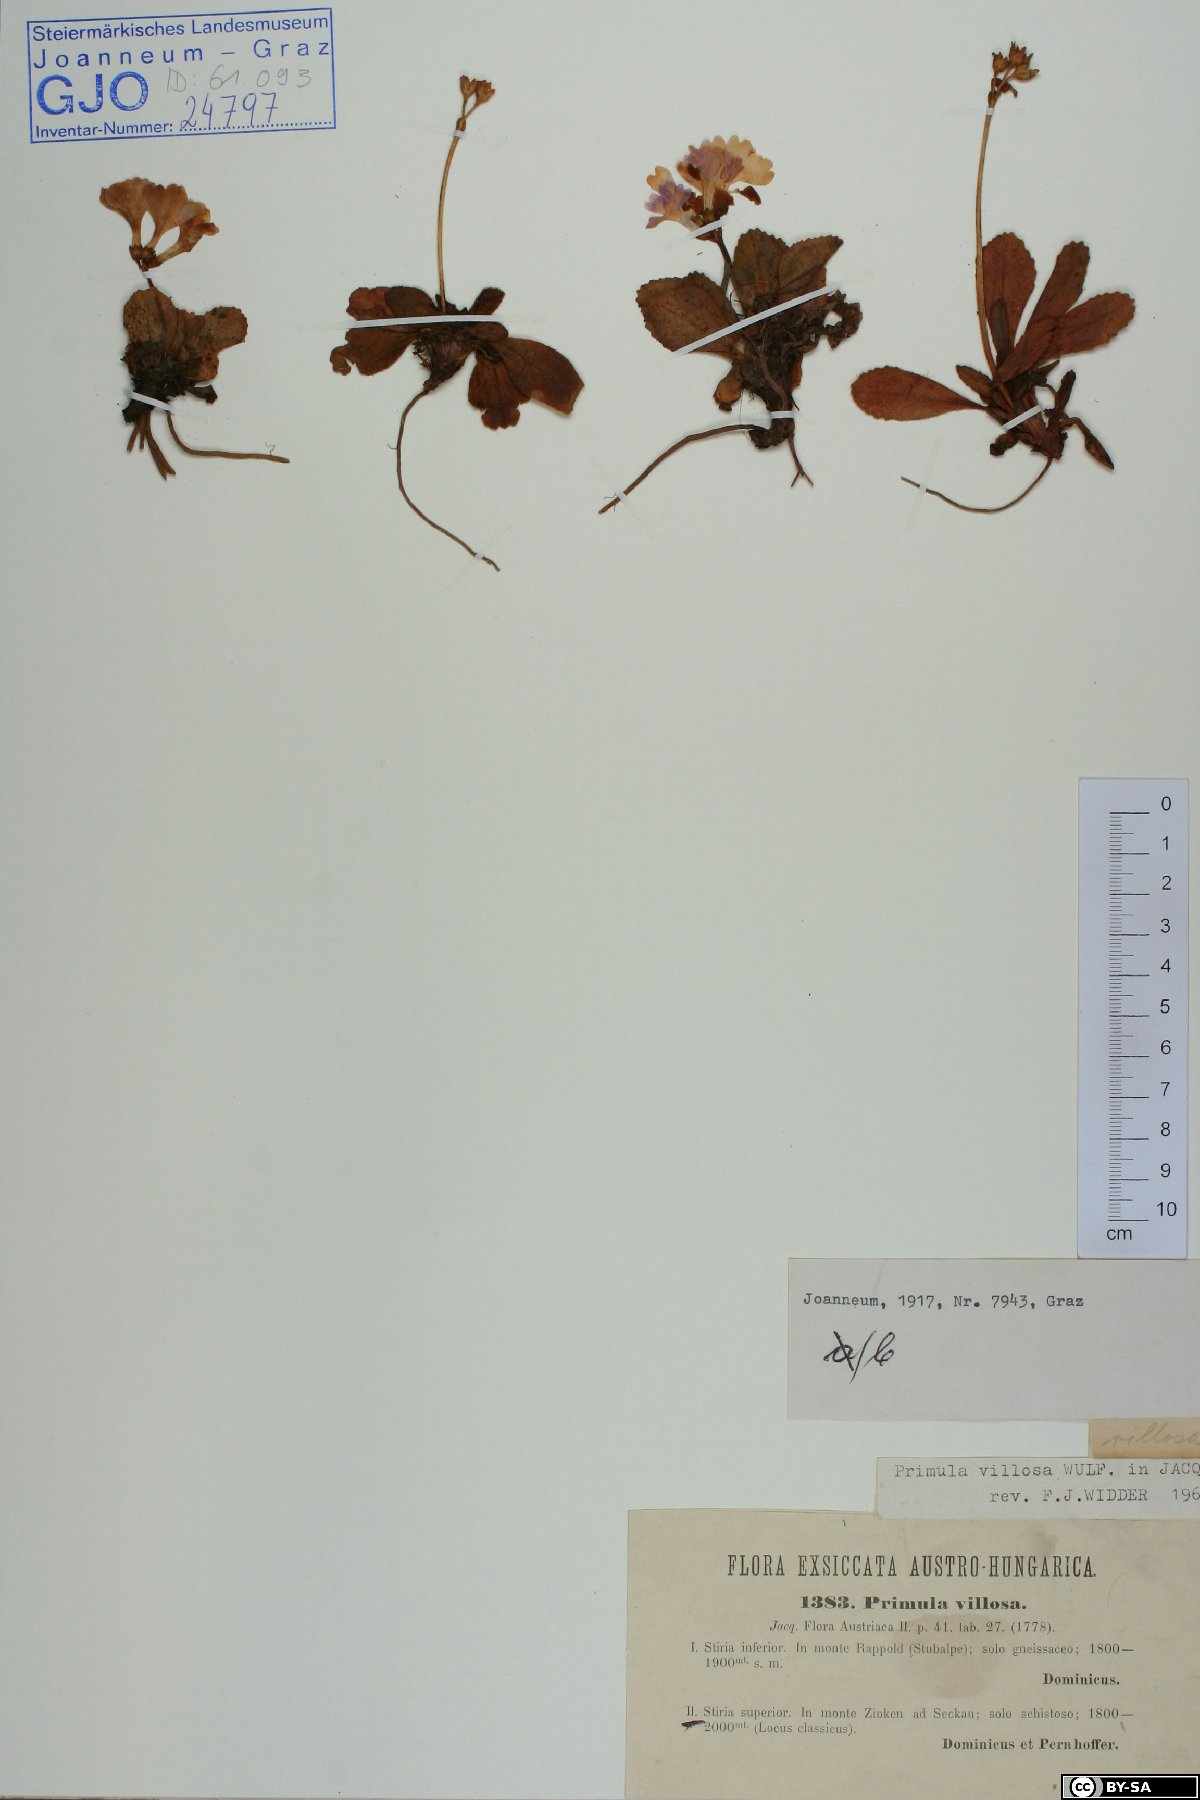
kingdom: Plantae
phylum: Tracheophyta
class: Magnoliopsida
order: Ericales
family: Primulaceae
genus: Primula
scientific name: Primula villosa
